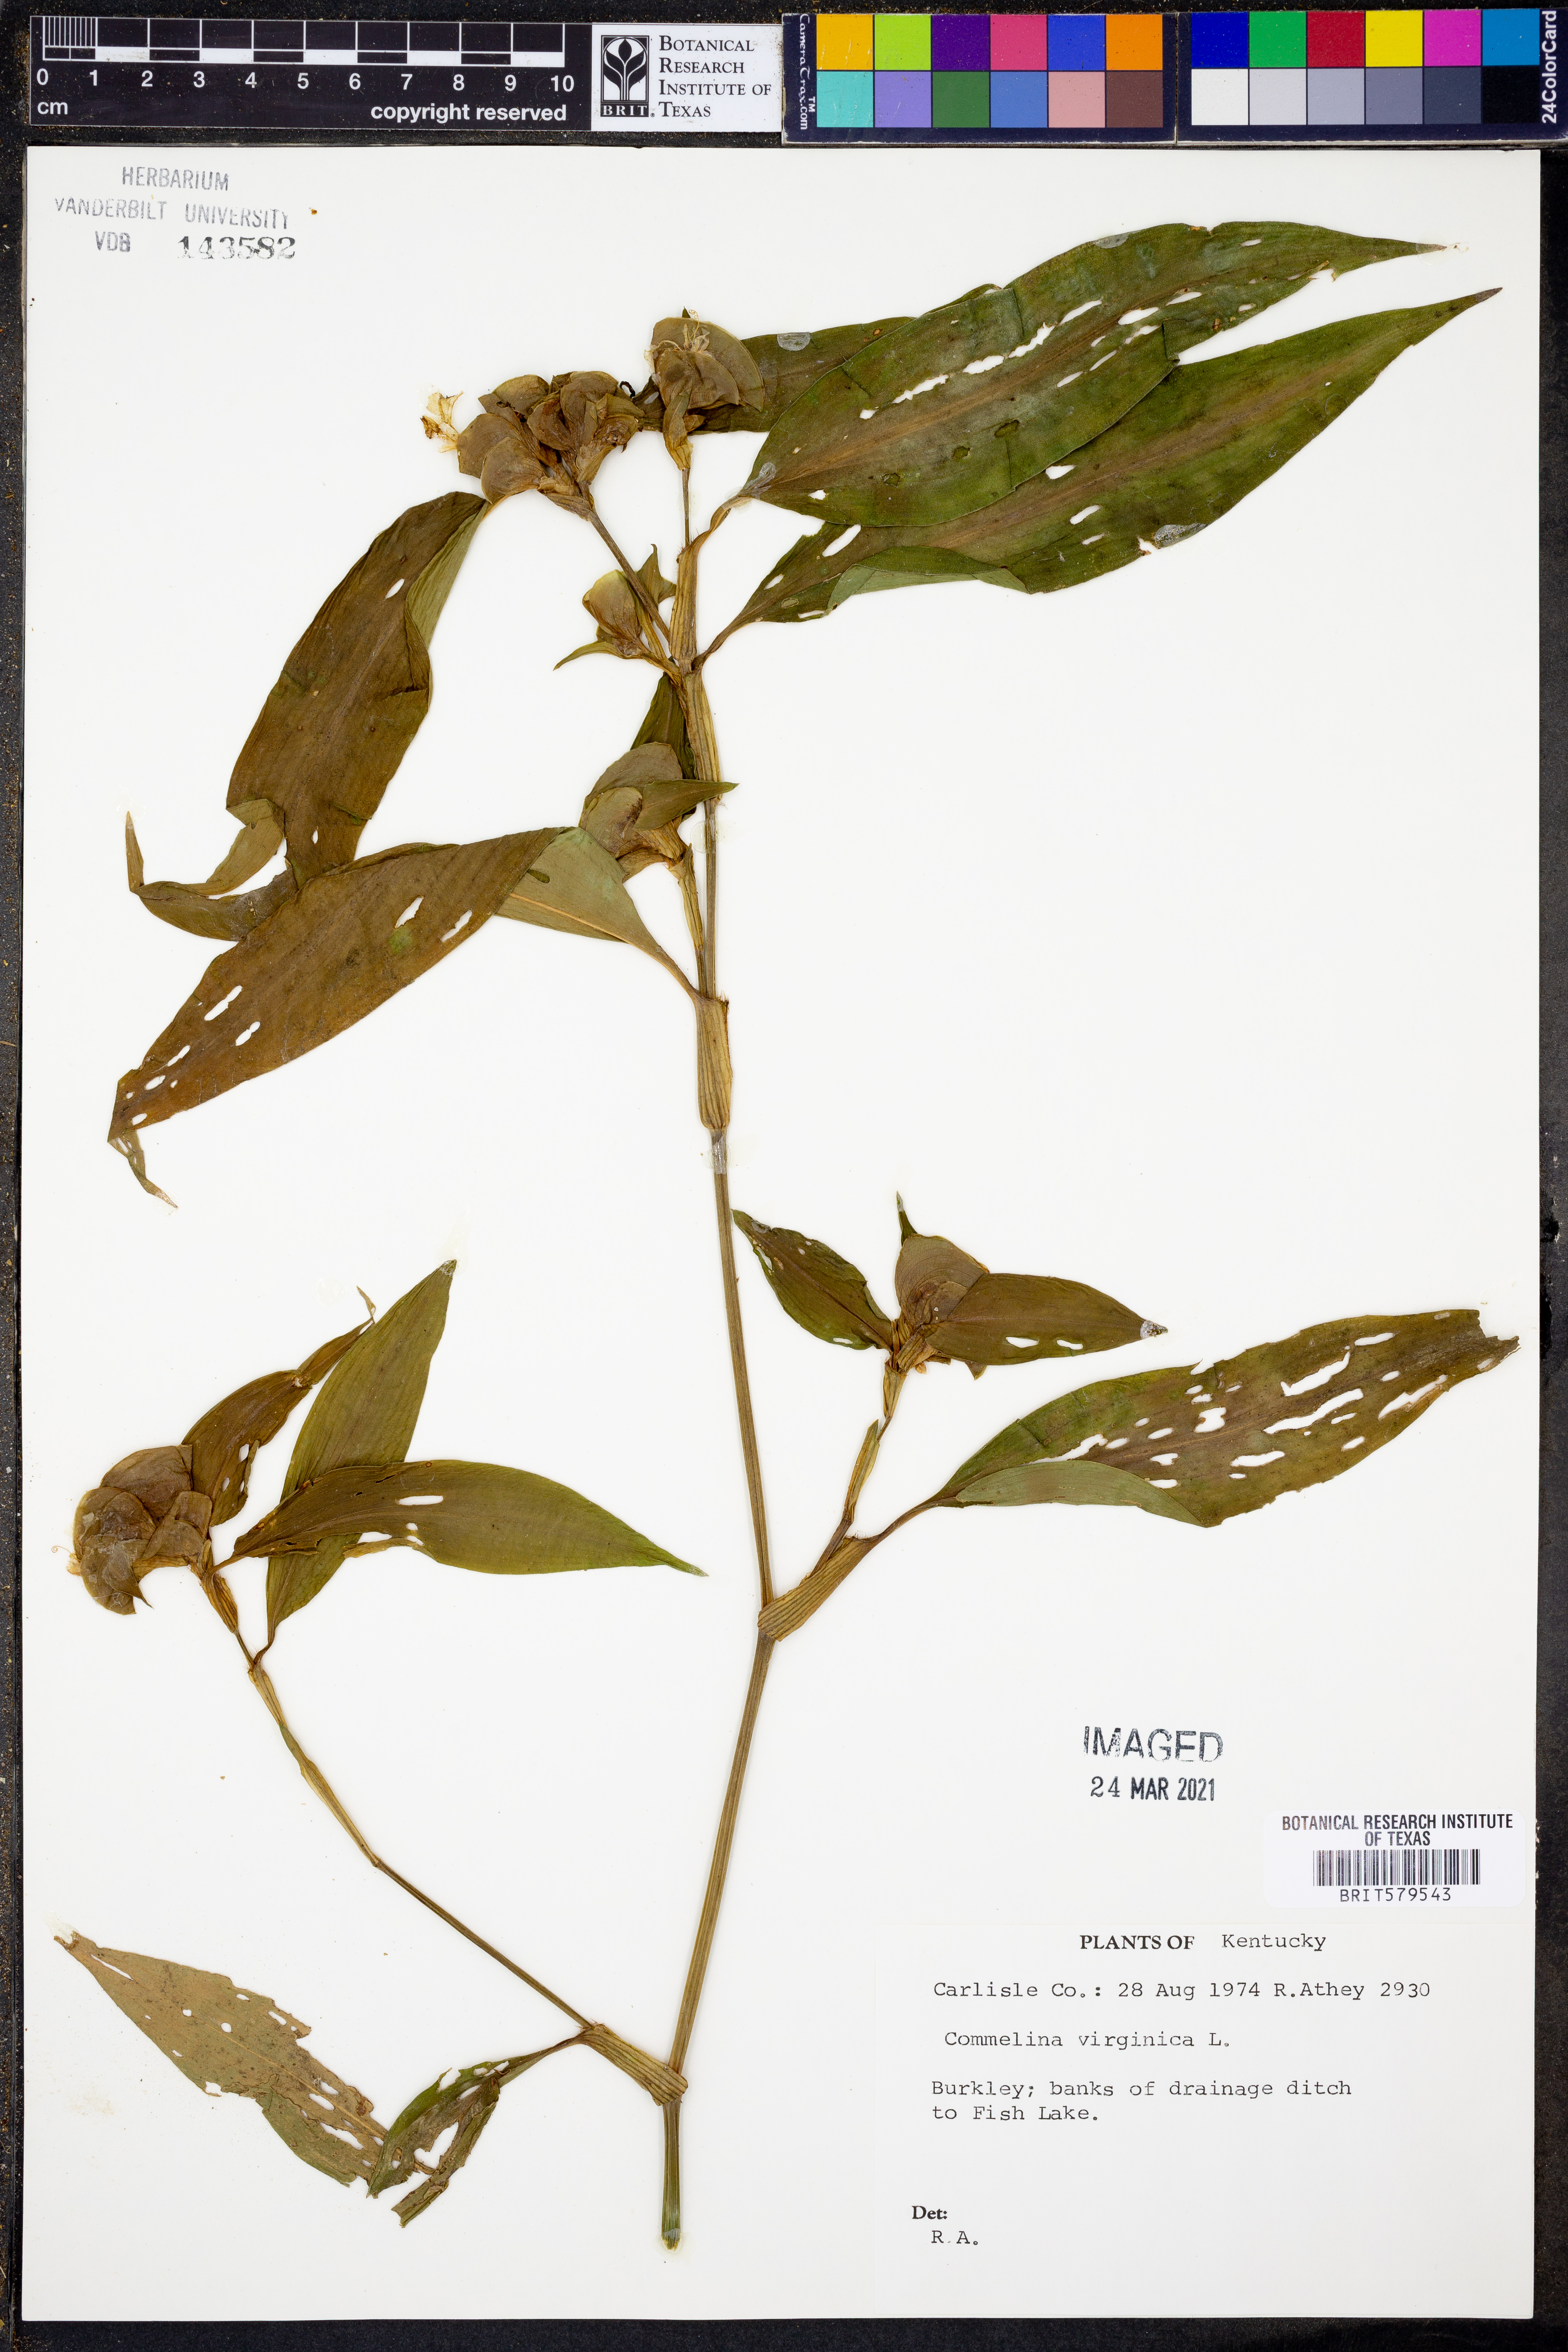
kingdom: Plantae
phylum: Tracheophyta
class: Liliopsida
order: Commelinales
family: Commelinaceae
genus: Commelina
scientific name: Commelina virginica
